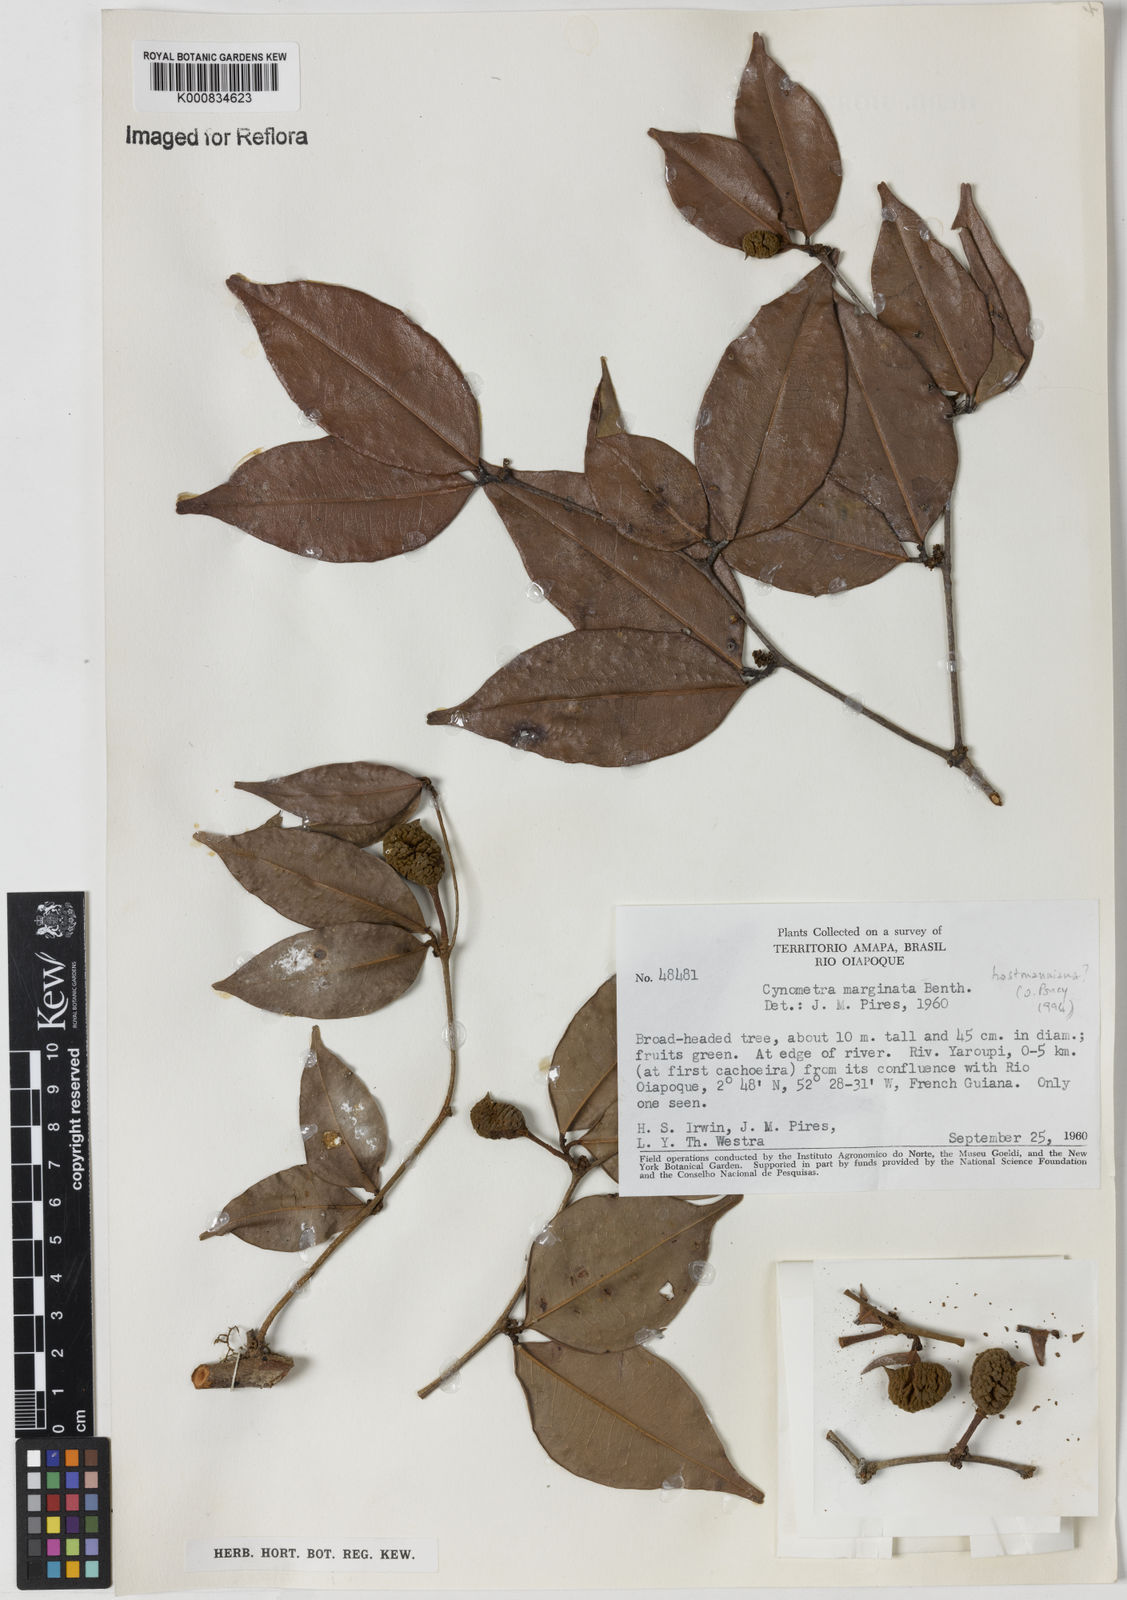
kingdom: Plantae
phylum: Tracheophyta
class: Magnoliopsida
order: Fabales
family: Fabaceae
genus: Cynometra
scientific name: Cynometra hostmanniana
